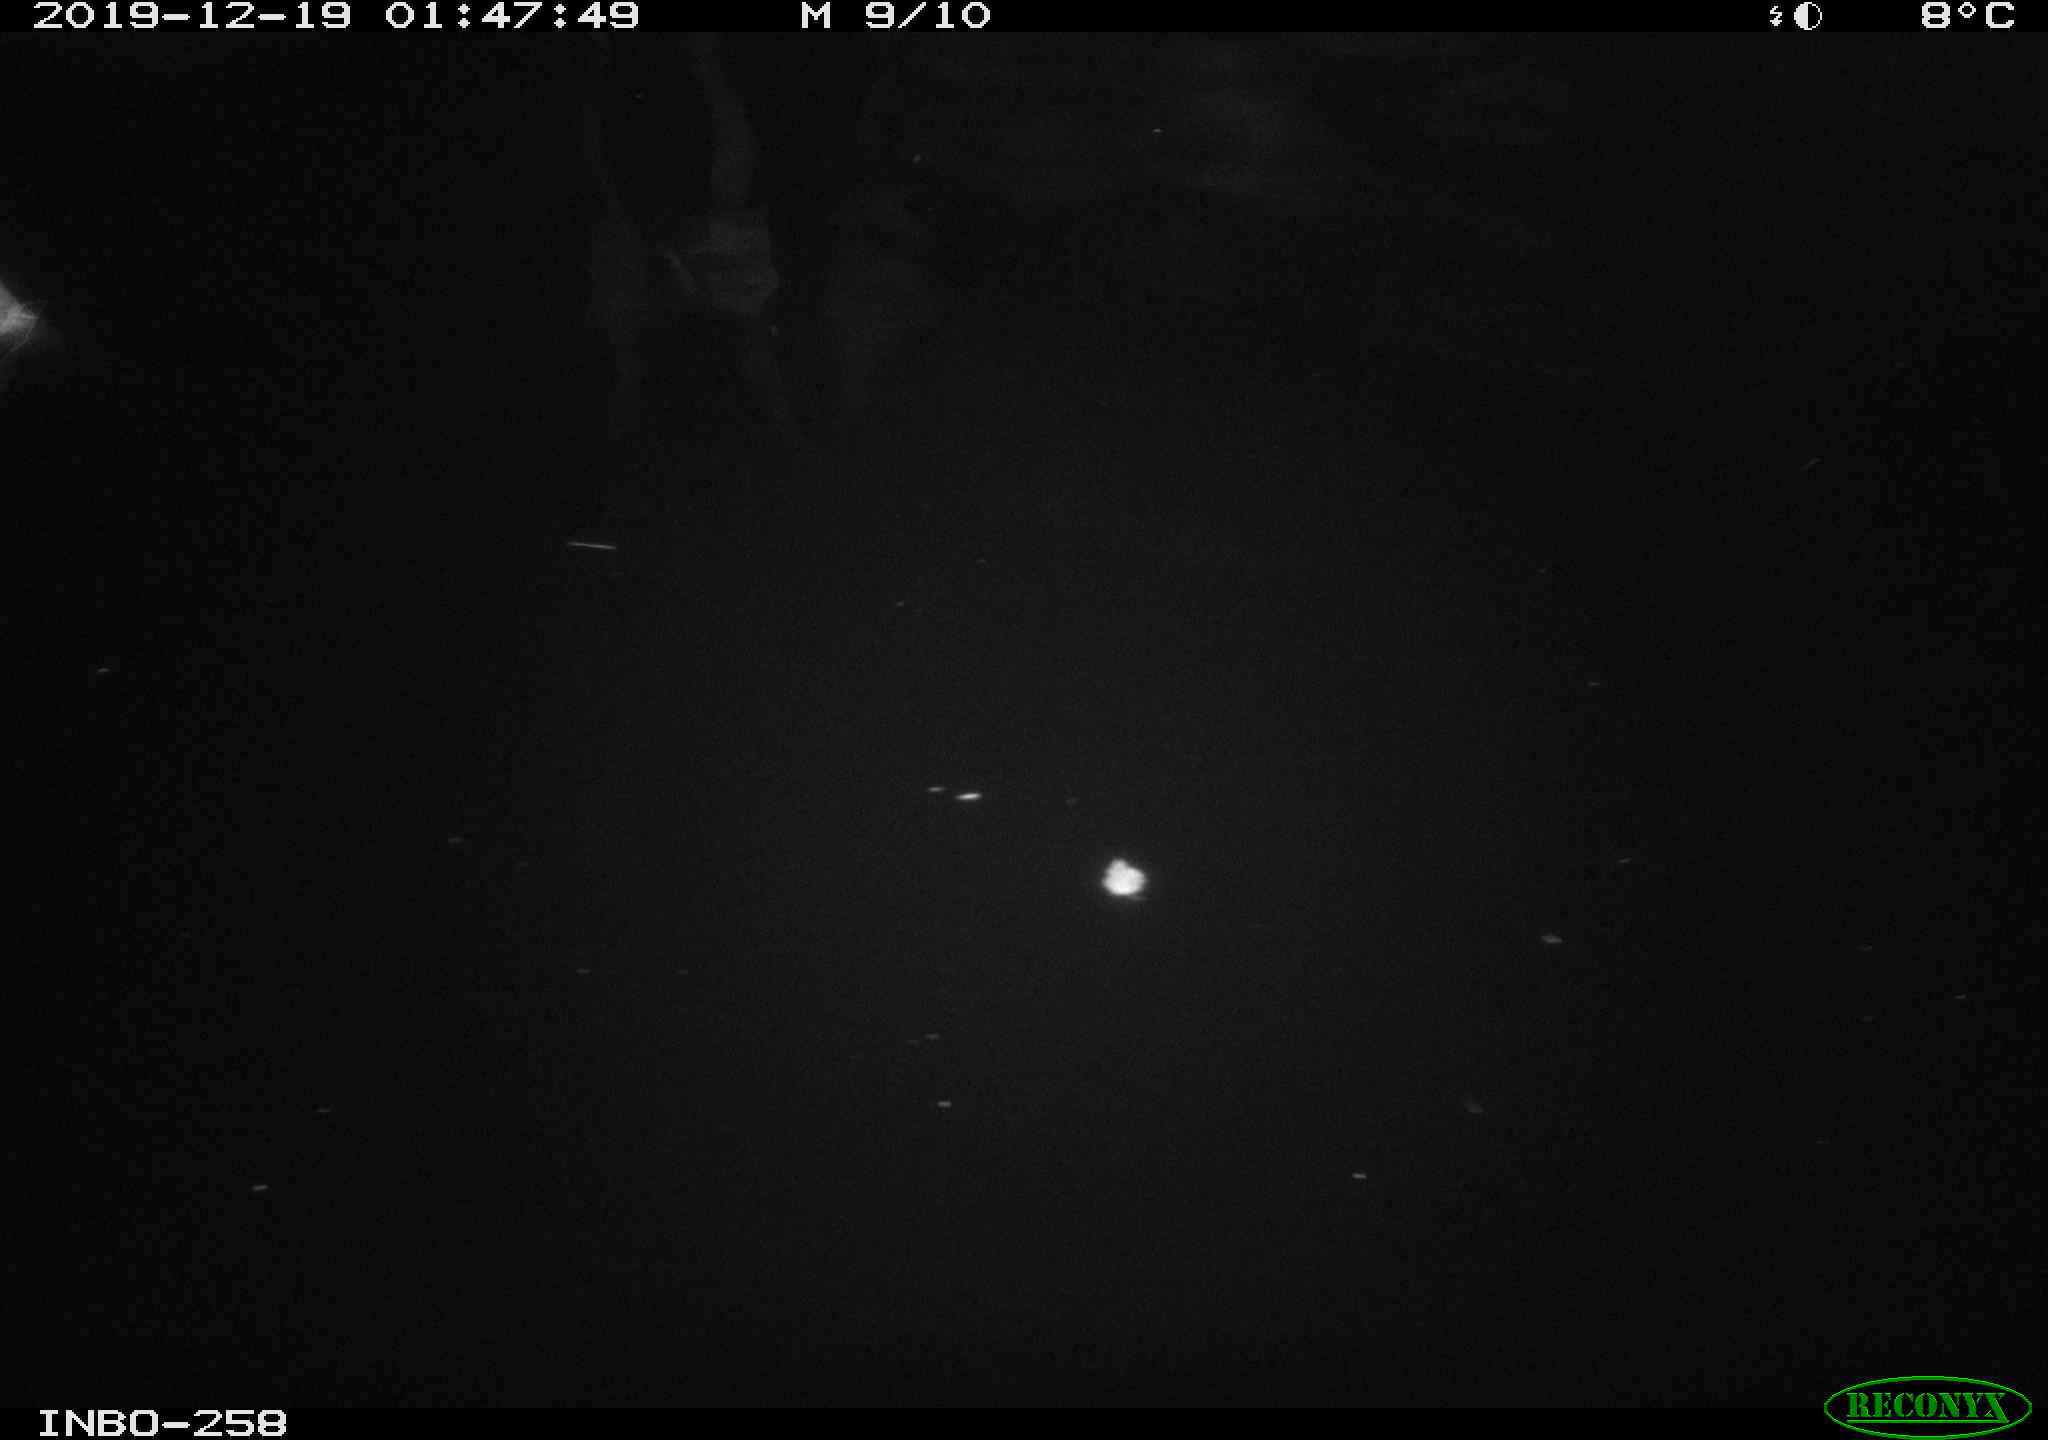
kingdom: Animalia
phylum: Chordata
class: Aves
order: Anseriformes
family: Anatidae
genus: Anas
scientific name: Anas platyrhynchos
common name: Mallard
